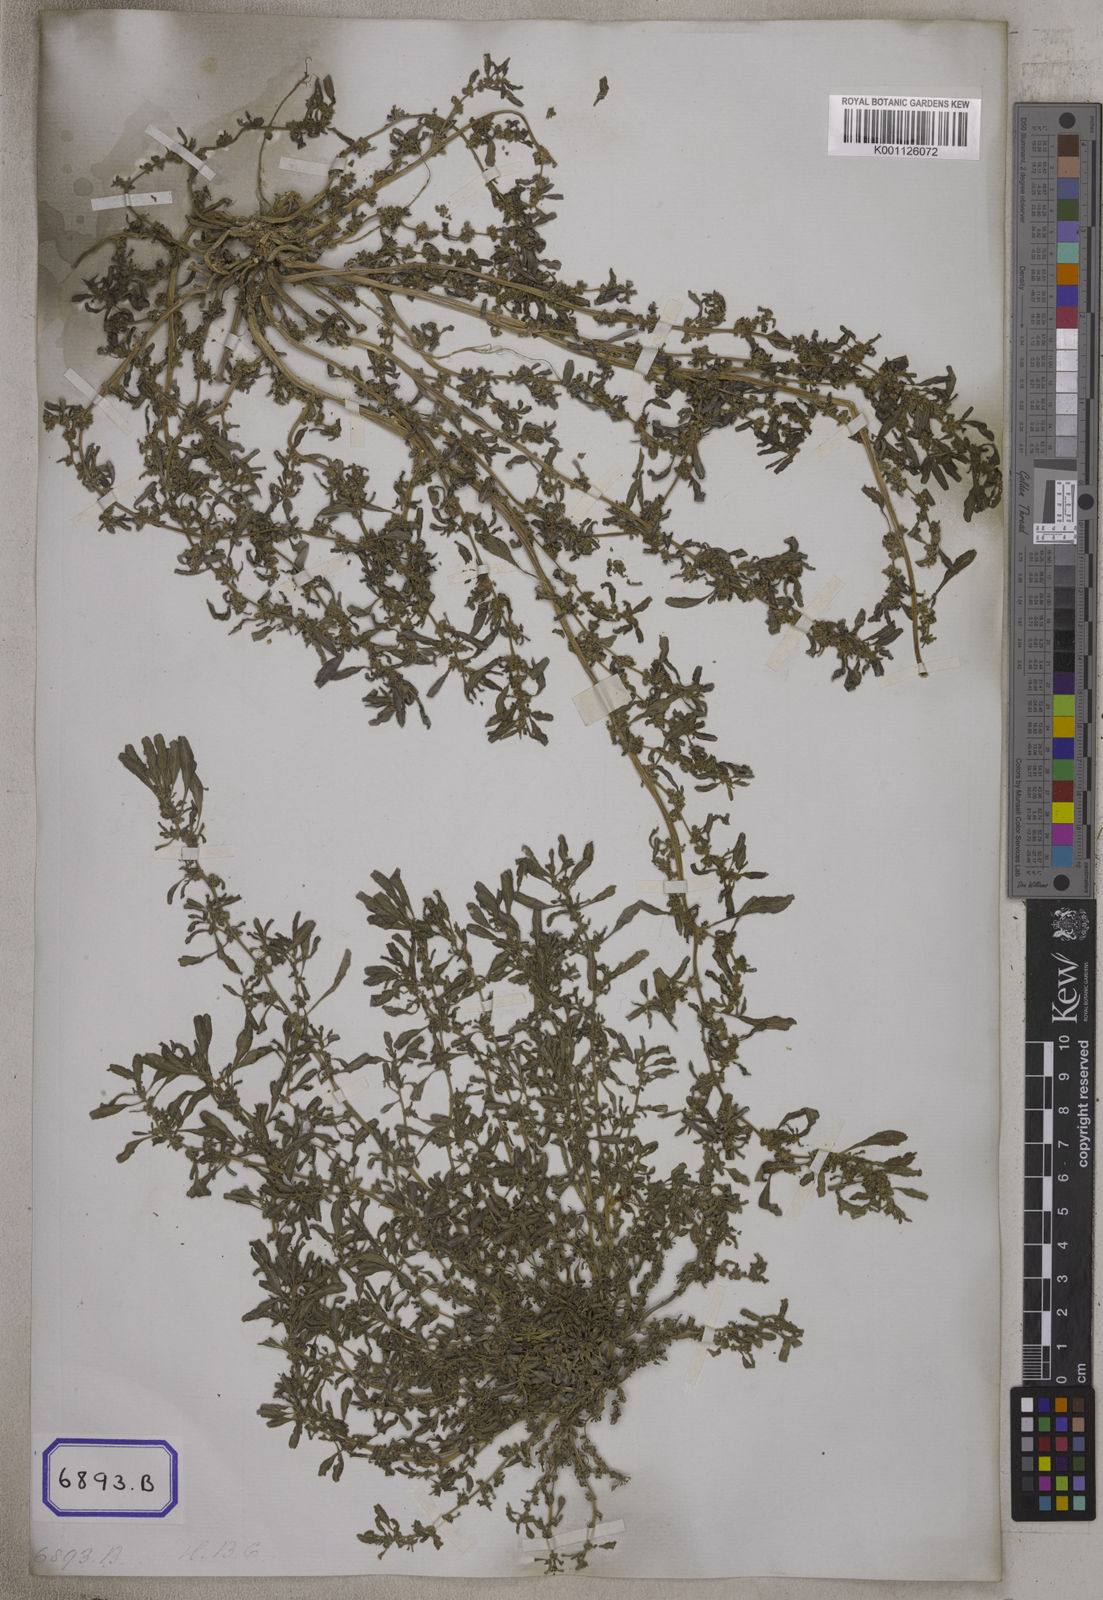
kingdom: Plantae
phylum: Tracheophyta
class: Magnoliopsida
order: Caryophyllales
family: Amaranthaceae
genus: Amaranthus
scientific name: Amaranthus
